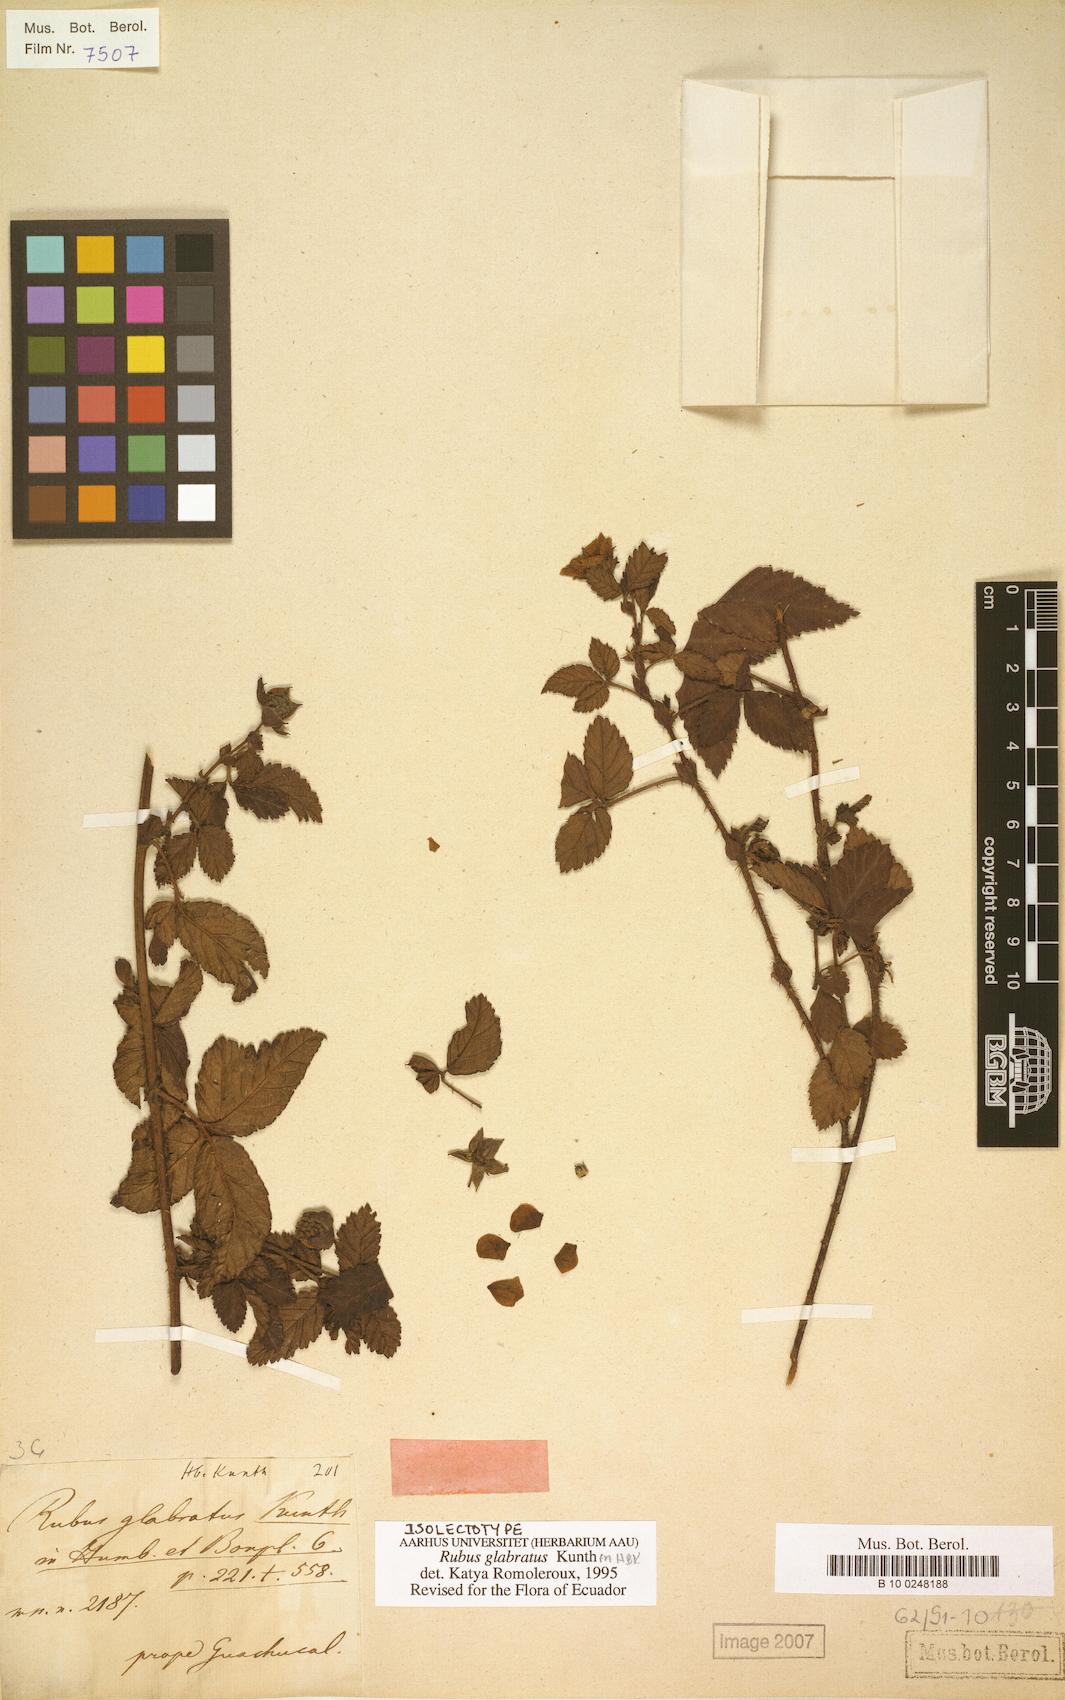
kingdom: Plantae
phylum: Tracheophyta
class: Magnoliopsida
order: Rosales
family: Rosaceae
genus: Rubus
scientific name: Rubus glabratus
